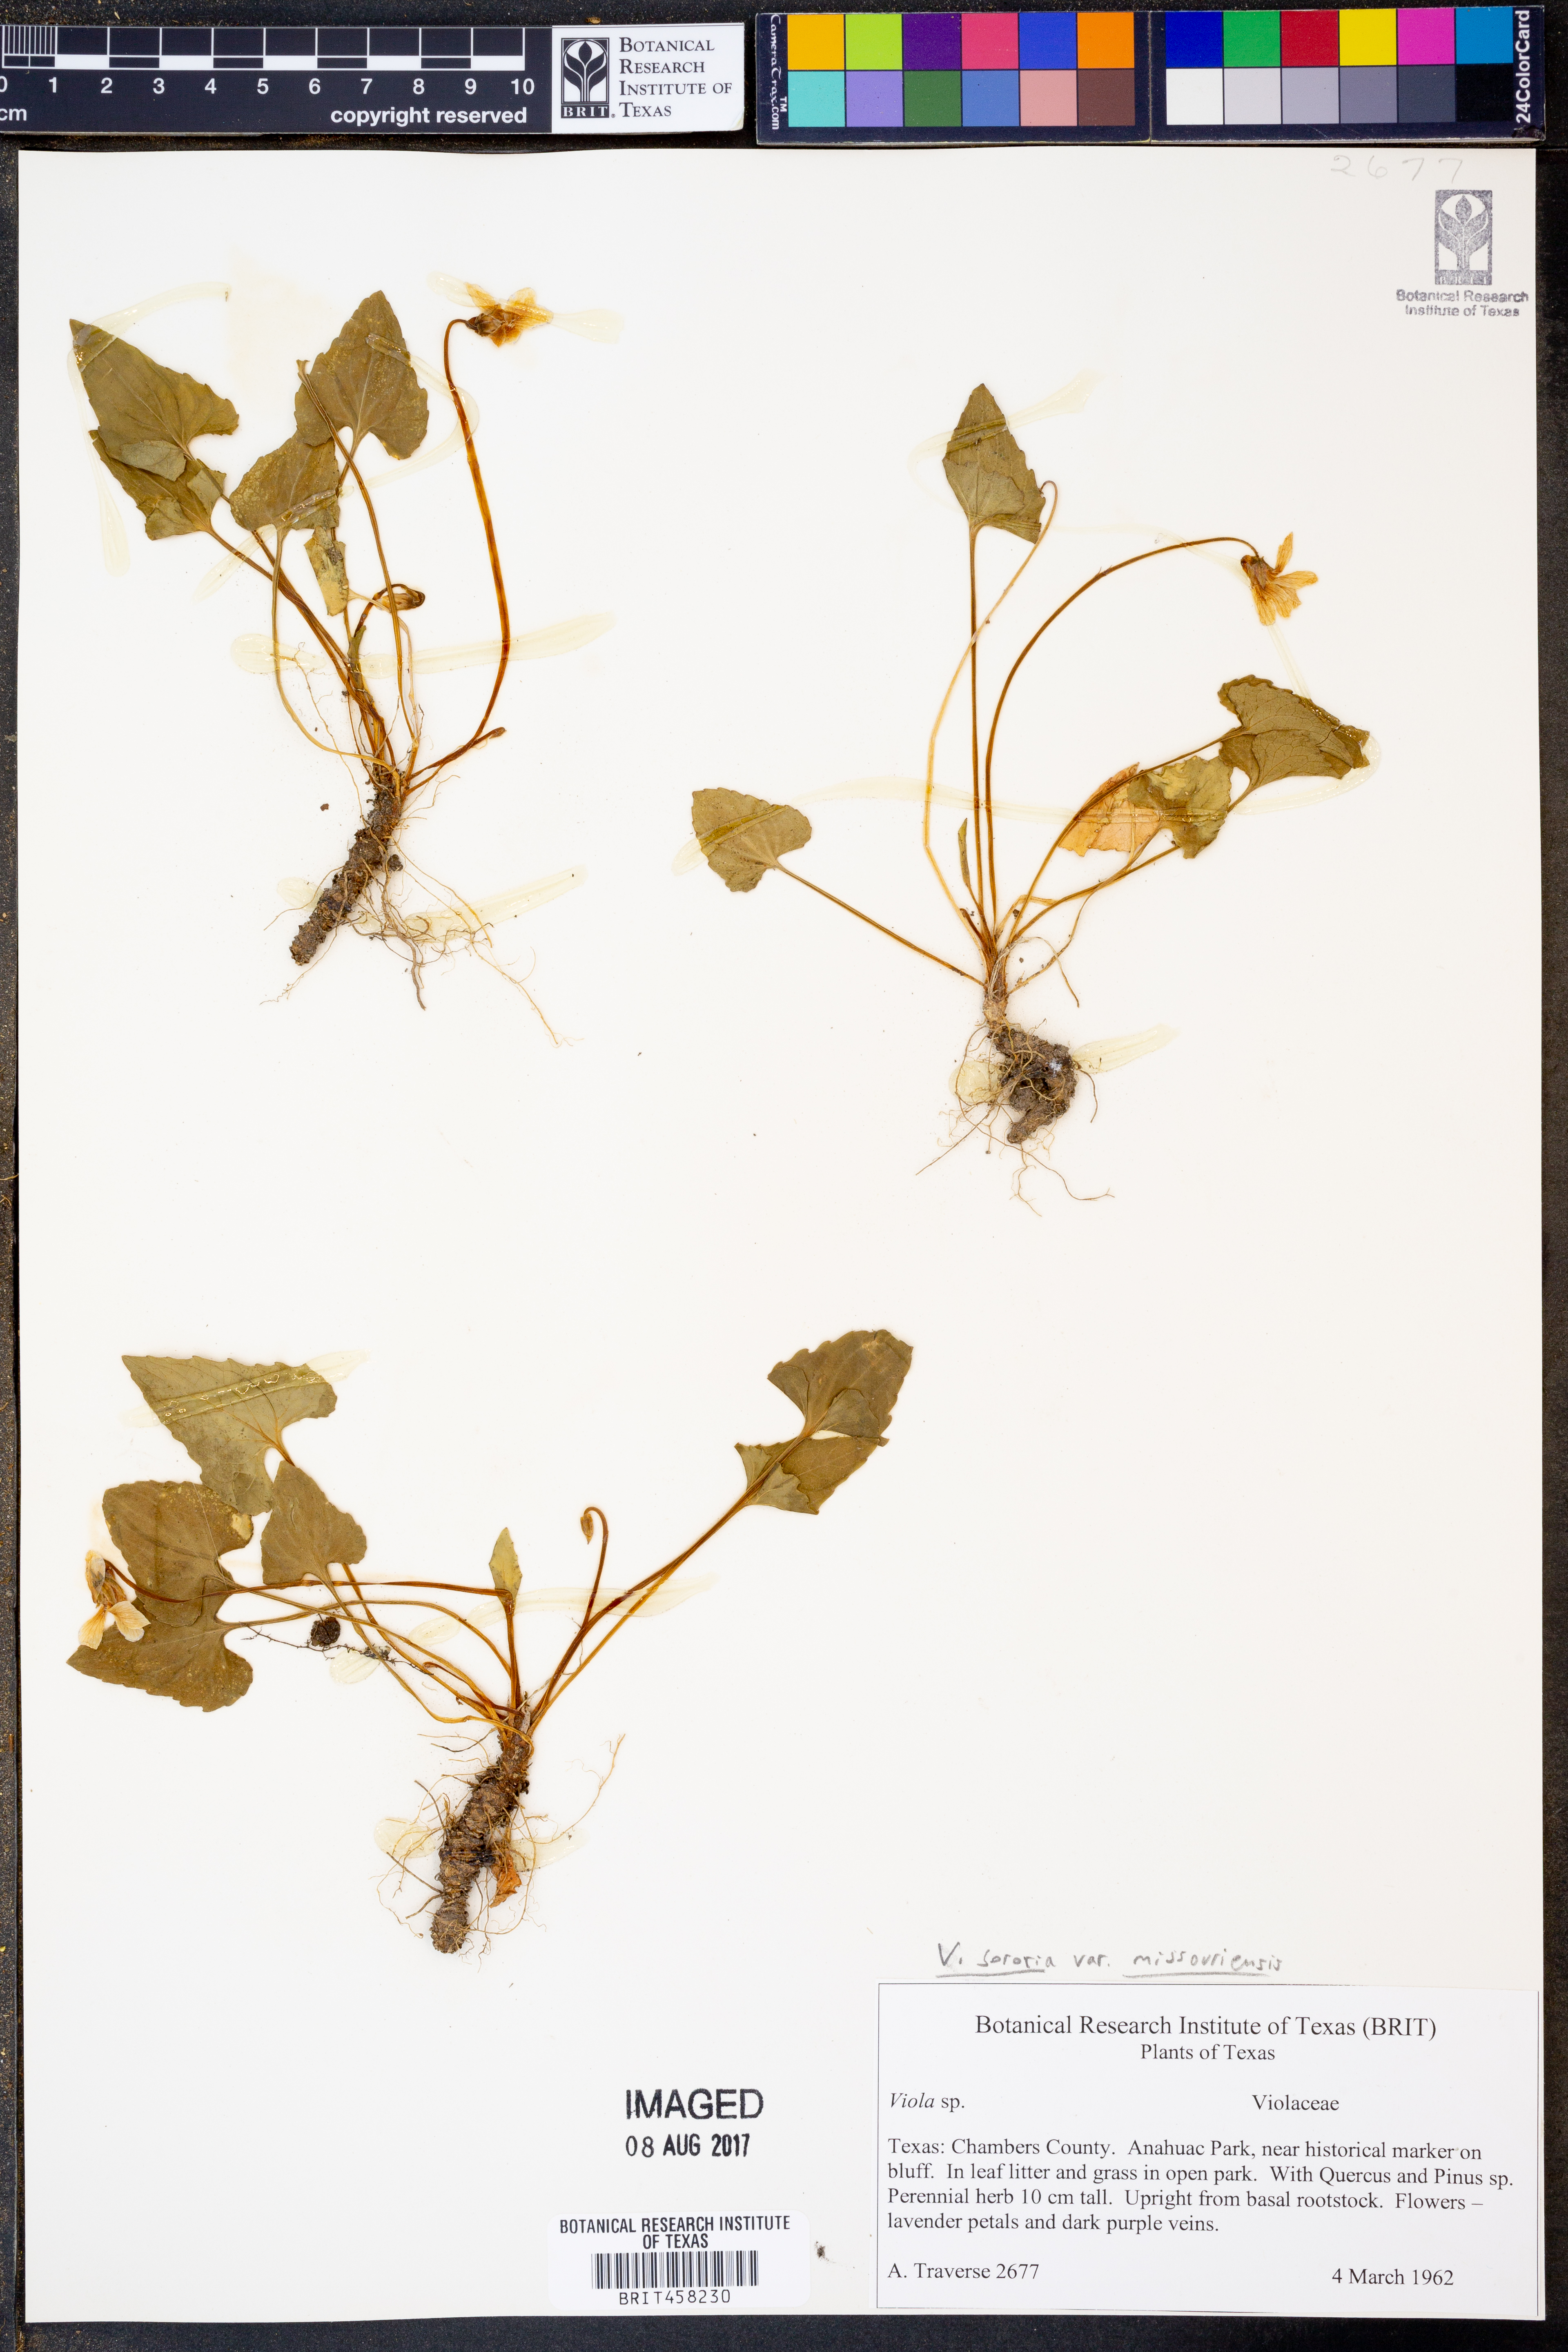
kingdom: Plantae
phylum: Tracheophyta
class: Magnoliopsida
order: Malpighiales
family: Violaceae
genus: Viola
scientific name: Viola missouriensis
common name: Missouri violet
